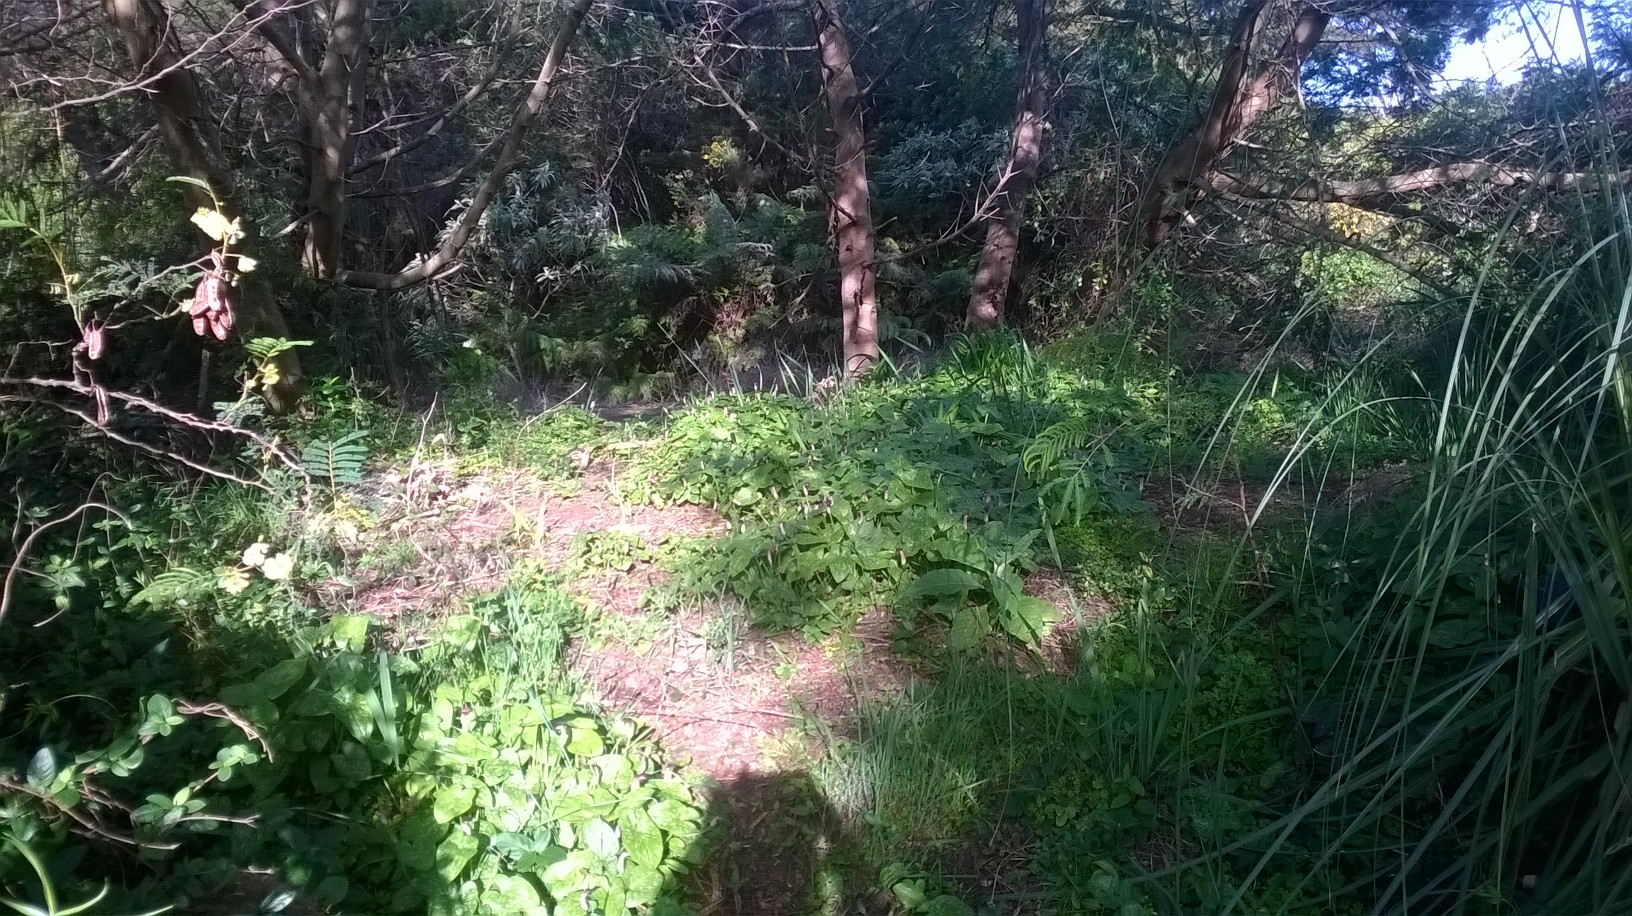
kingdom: Plantae
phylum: Tracheophyta
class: Liliopsida
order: Alismatales
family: Araceae
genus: Arisarum
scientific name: Arisarum vulgare
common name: Common arisarum
